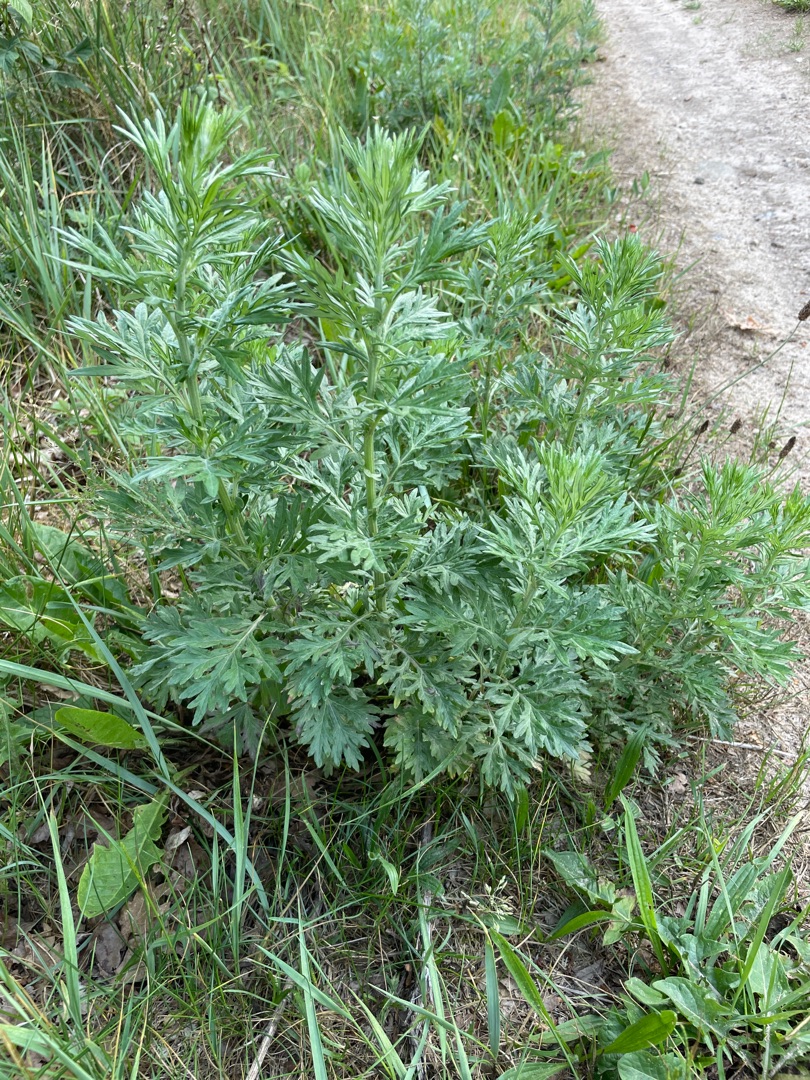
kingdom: Plantae
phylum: Tracheophyta
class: Magnoliopsida
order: Asterales
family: Asteraceae
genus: Artemisia
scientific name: Artemisia vulgaris
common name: Grå-bynke
